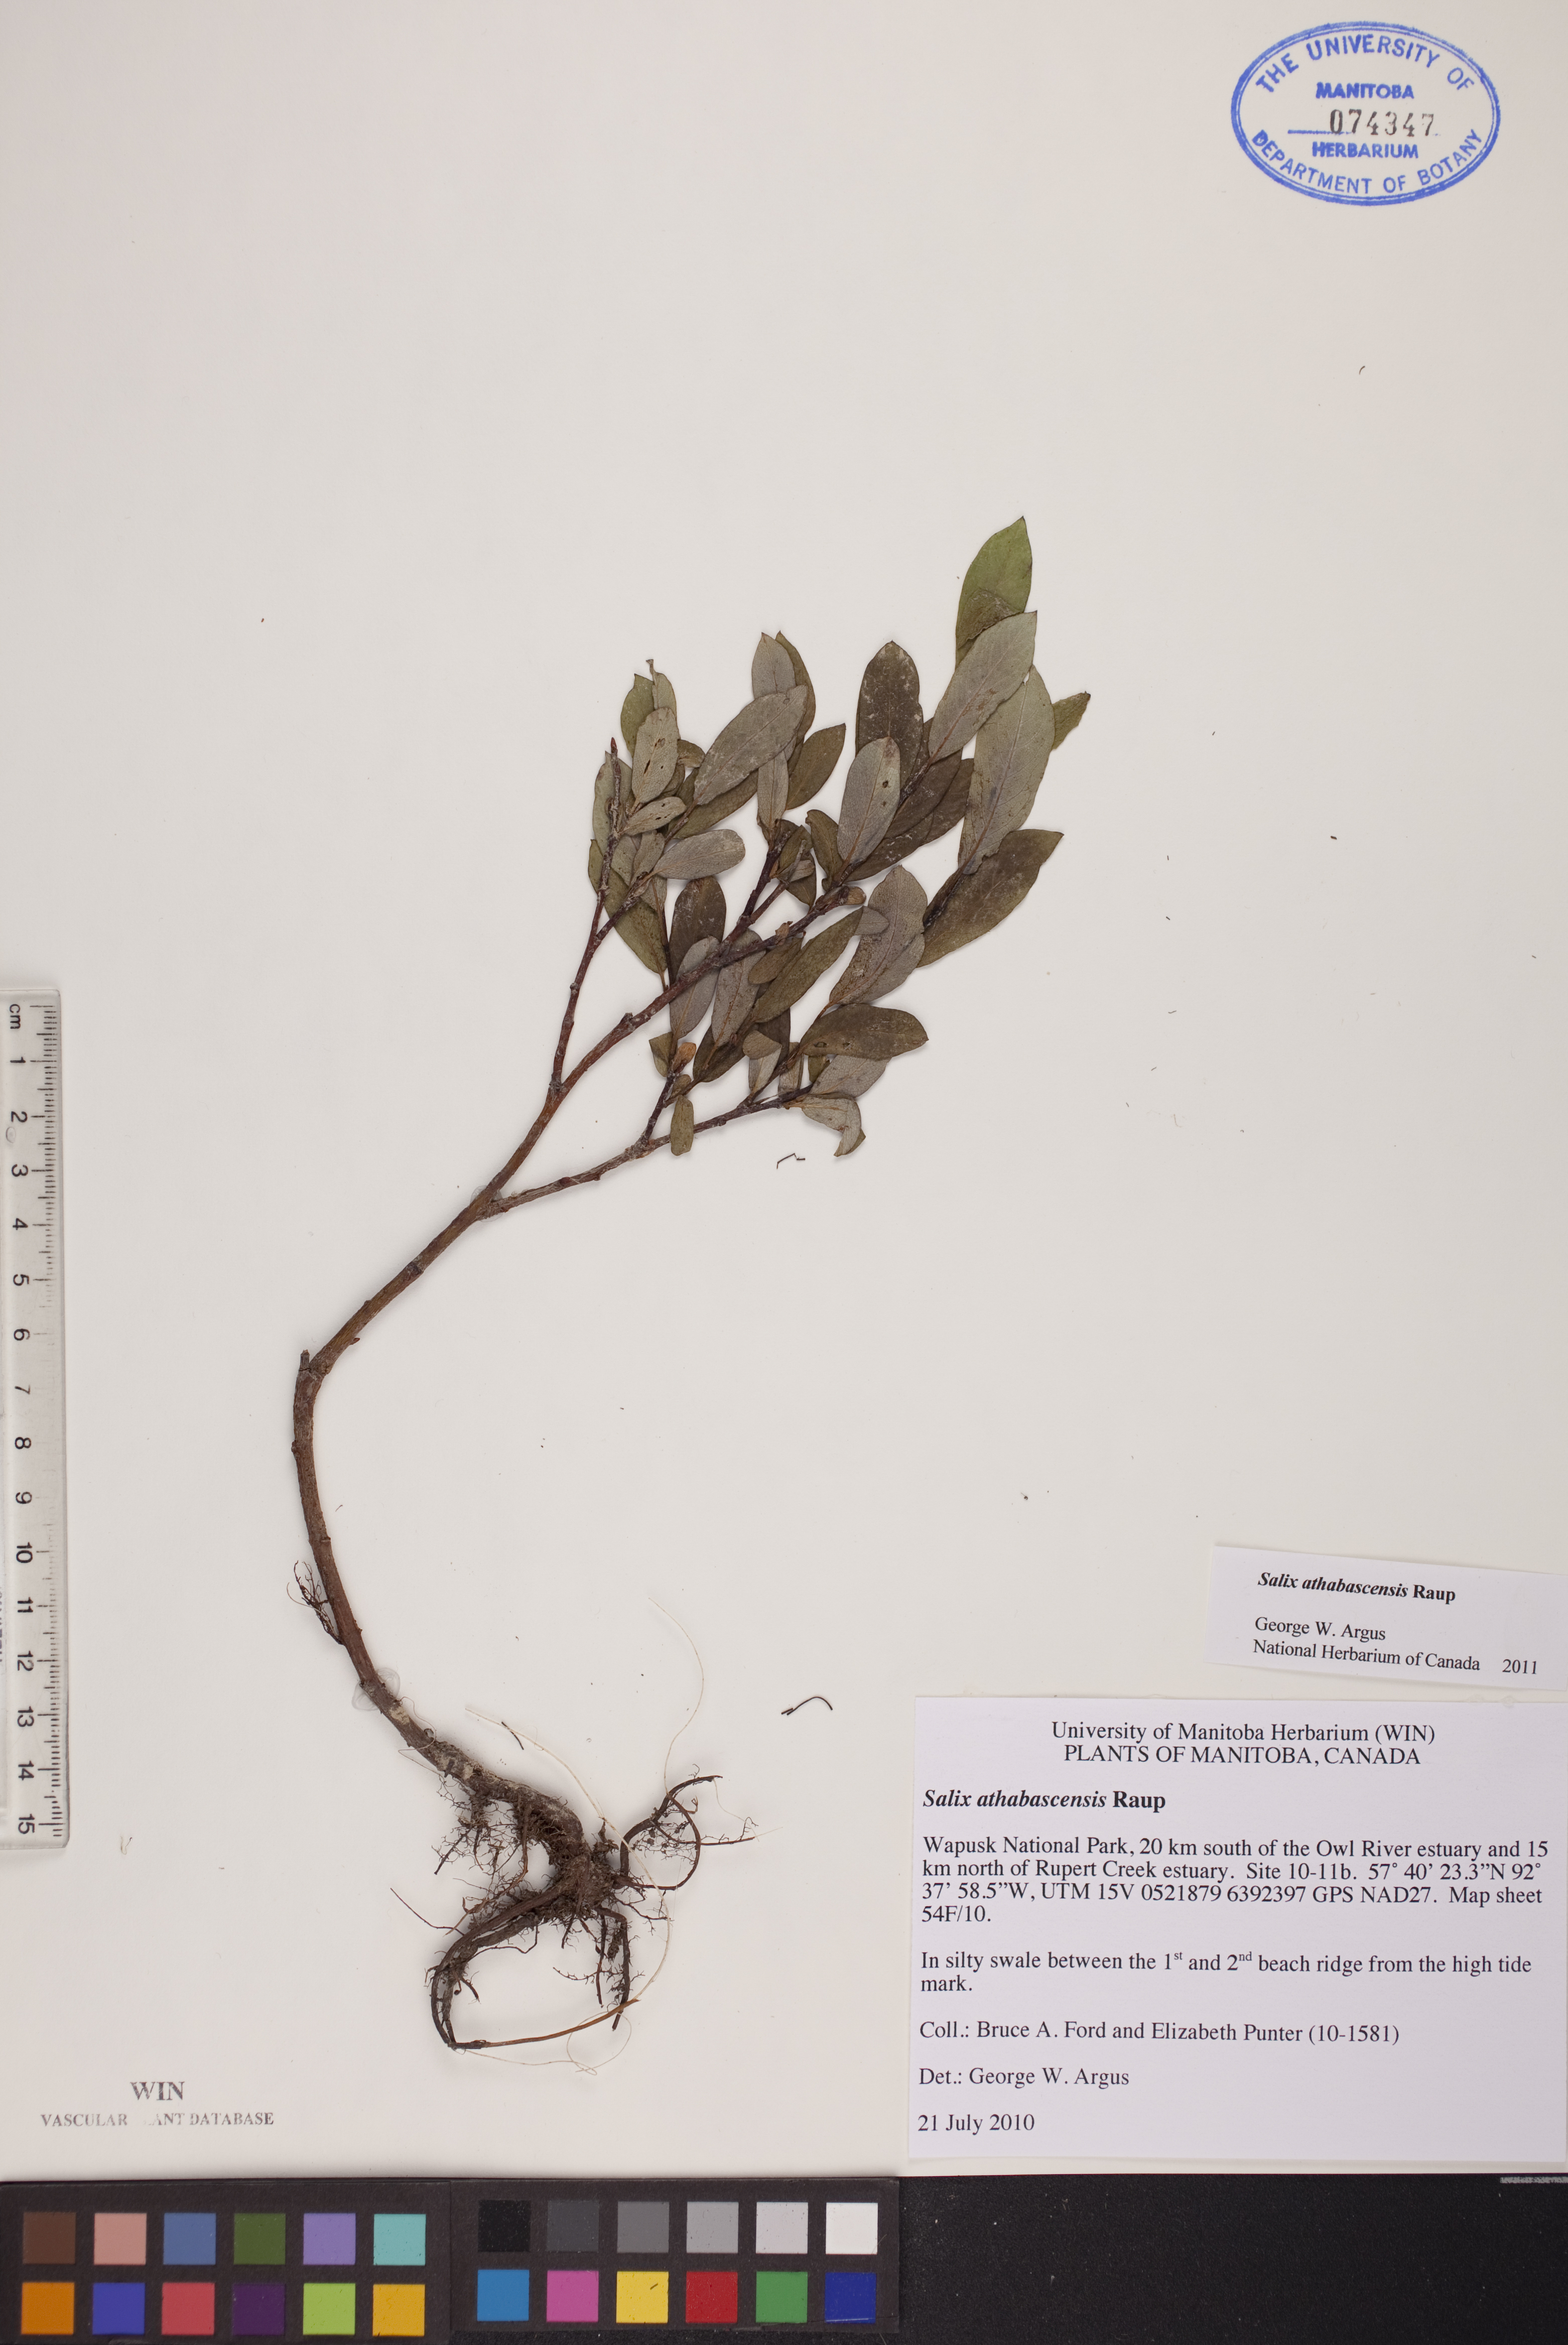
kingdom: Plantae
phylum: Tracheophyta
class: Magnoliopsida
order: Malpighiales
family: Salicaceae
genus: Salix
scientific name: Salix athabascensis
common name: Athabasca willow
